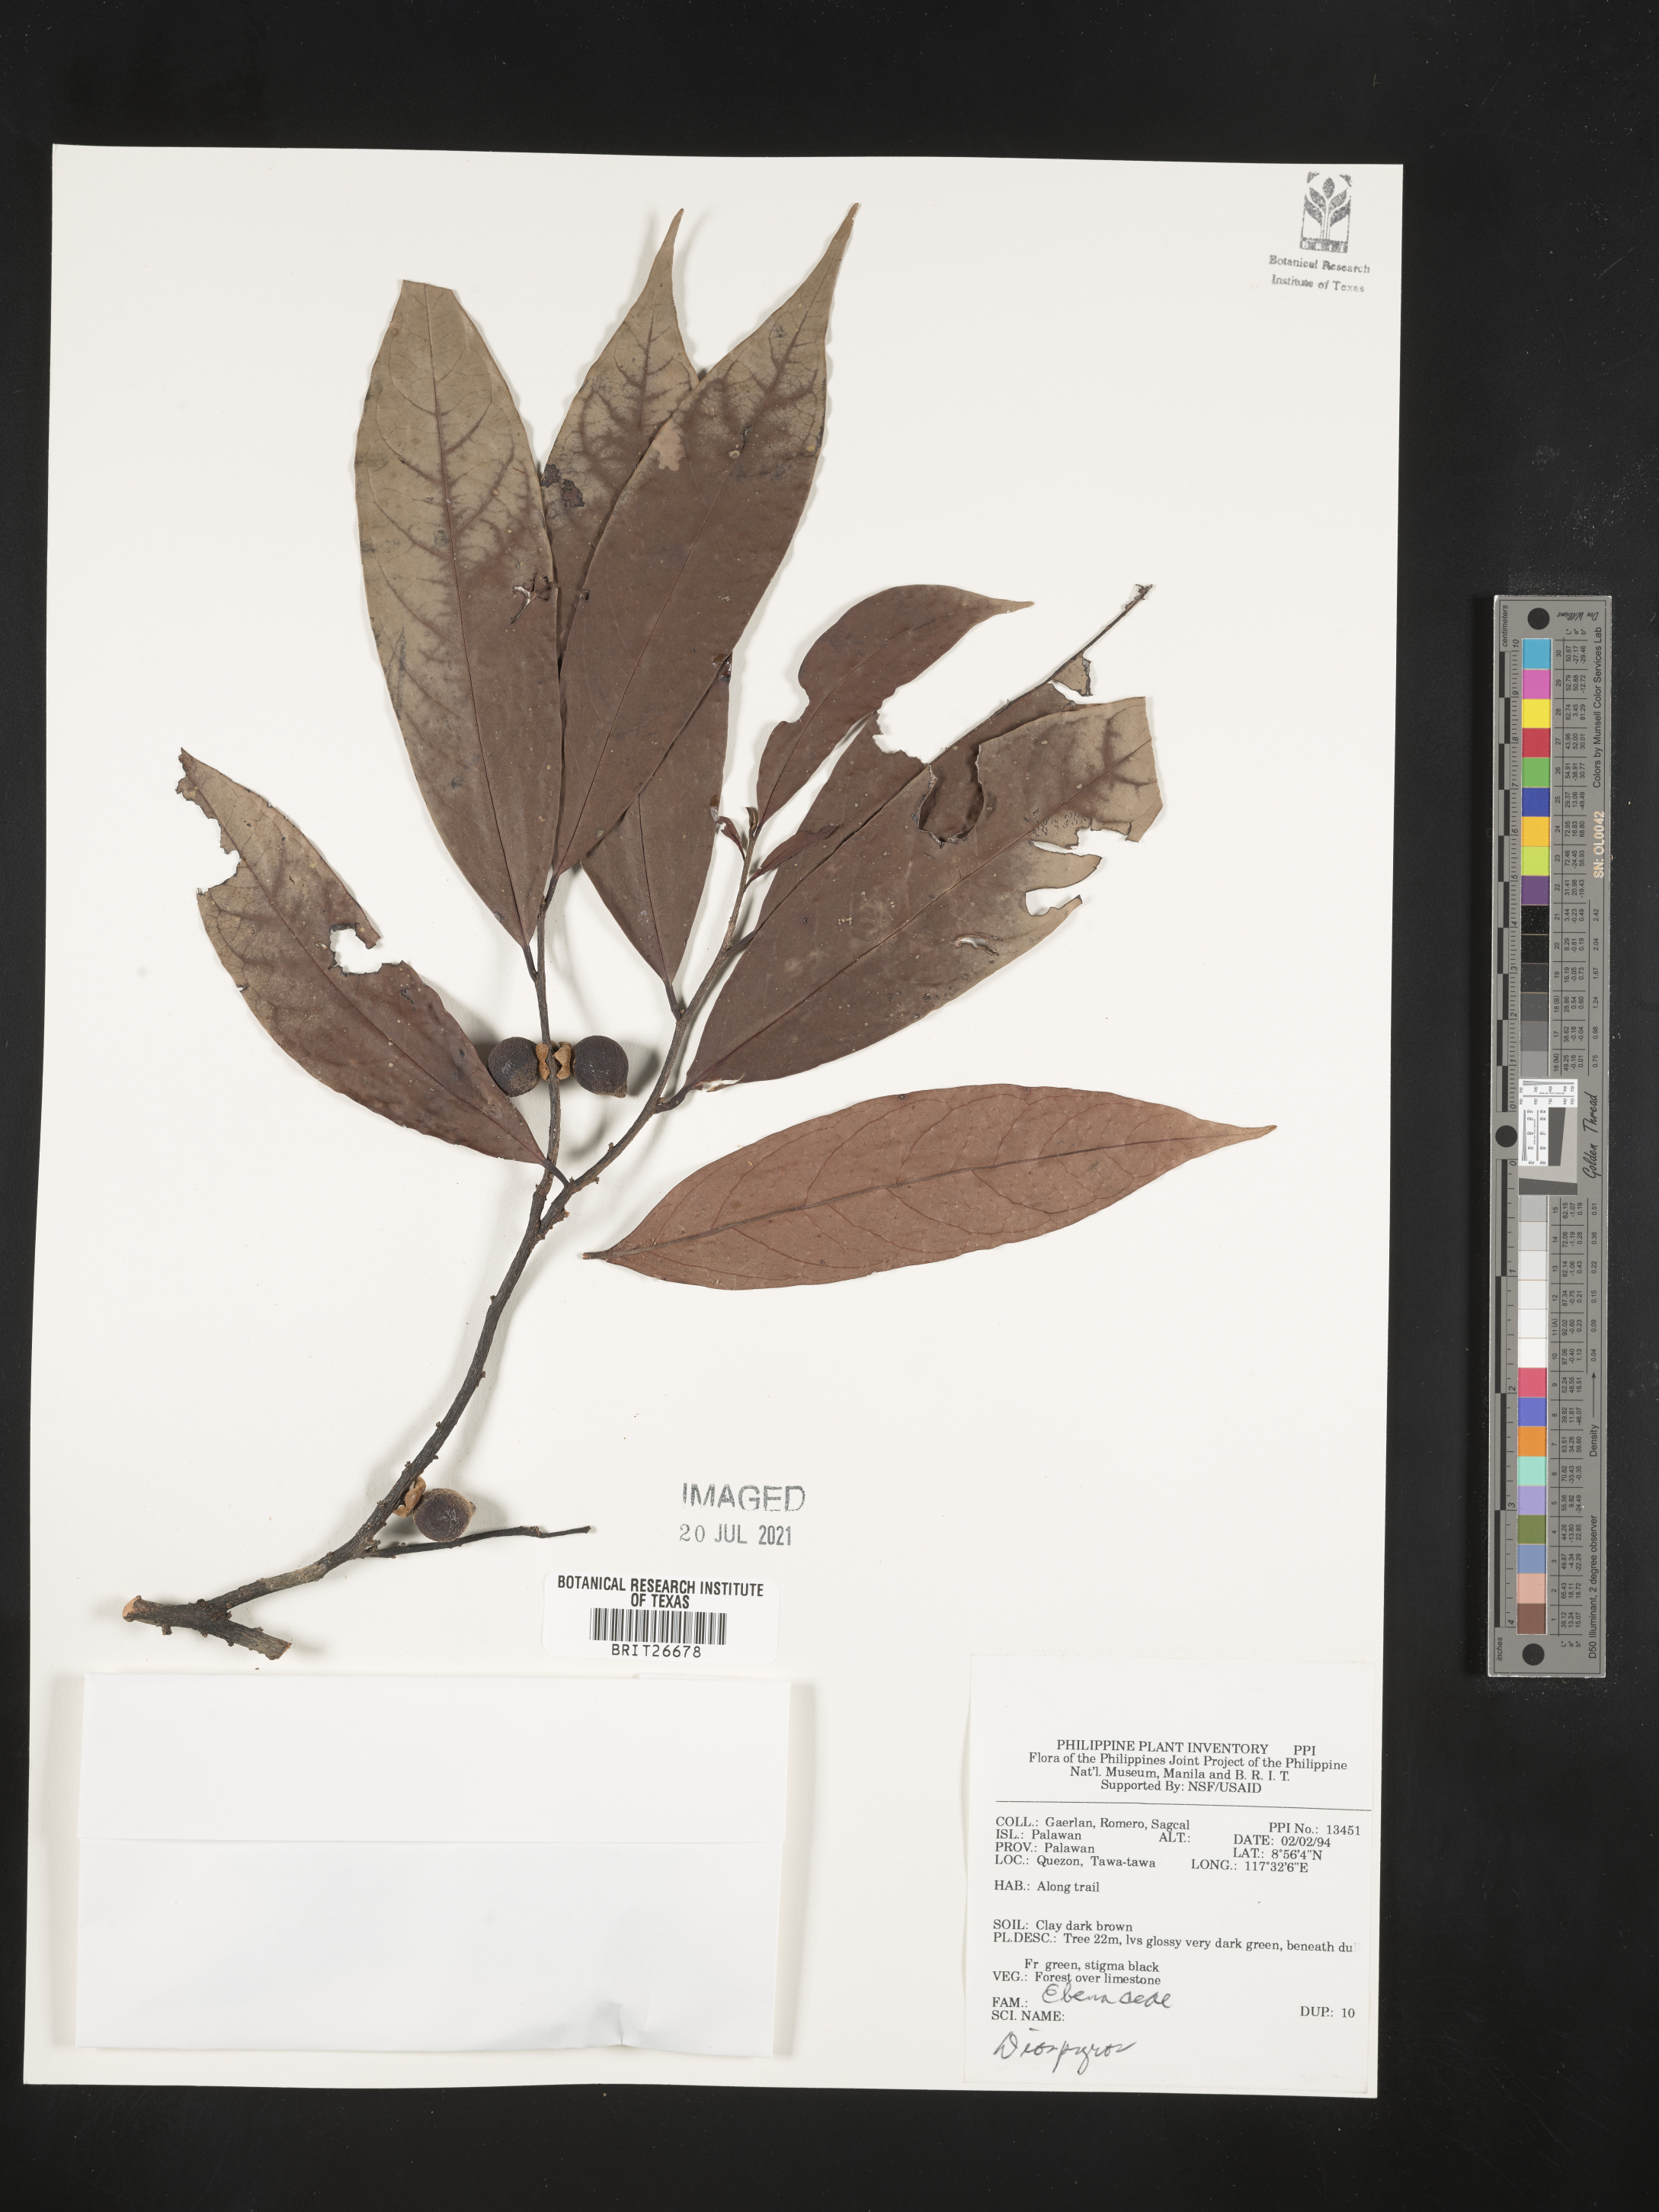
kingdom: Plantae
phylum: Tracheophyta
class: Magnoliopsida
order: Ericales
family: Ebenaceae
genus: Diospyros
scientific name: Diospyros
